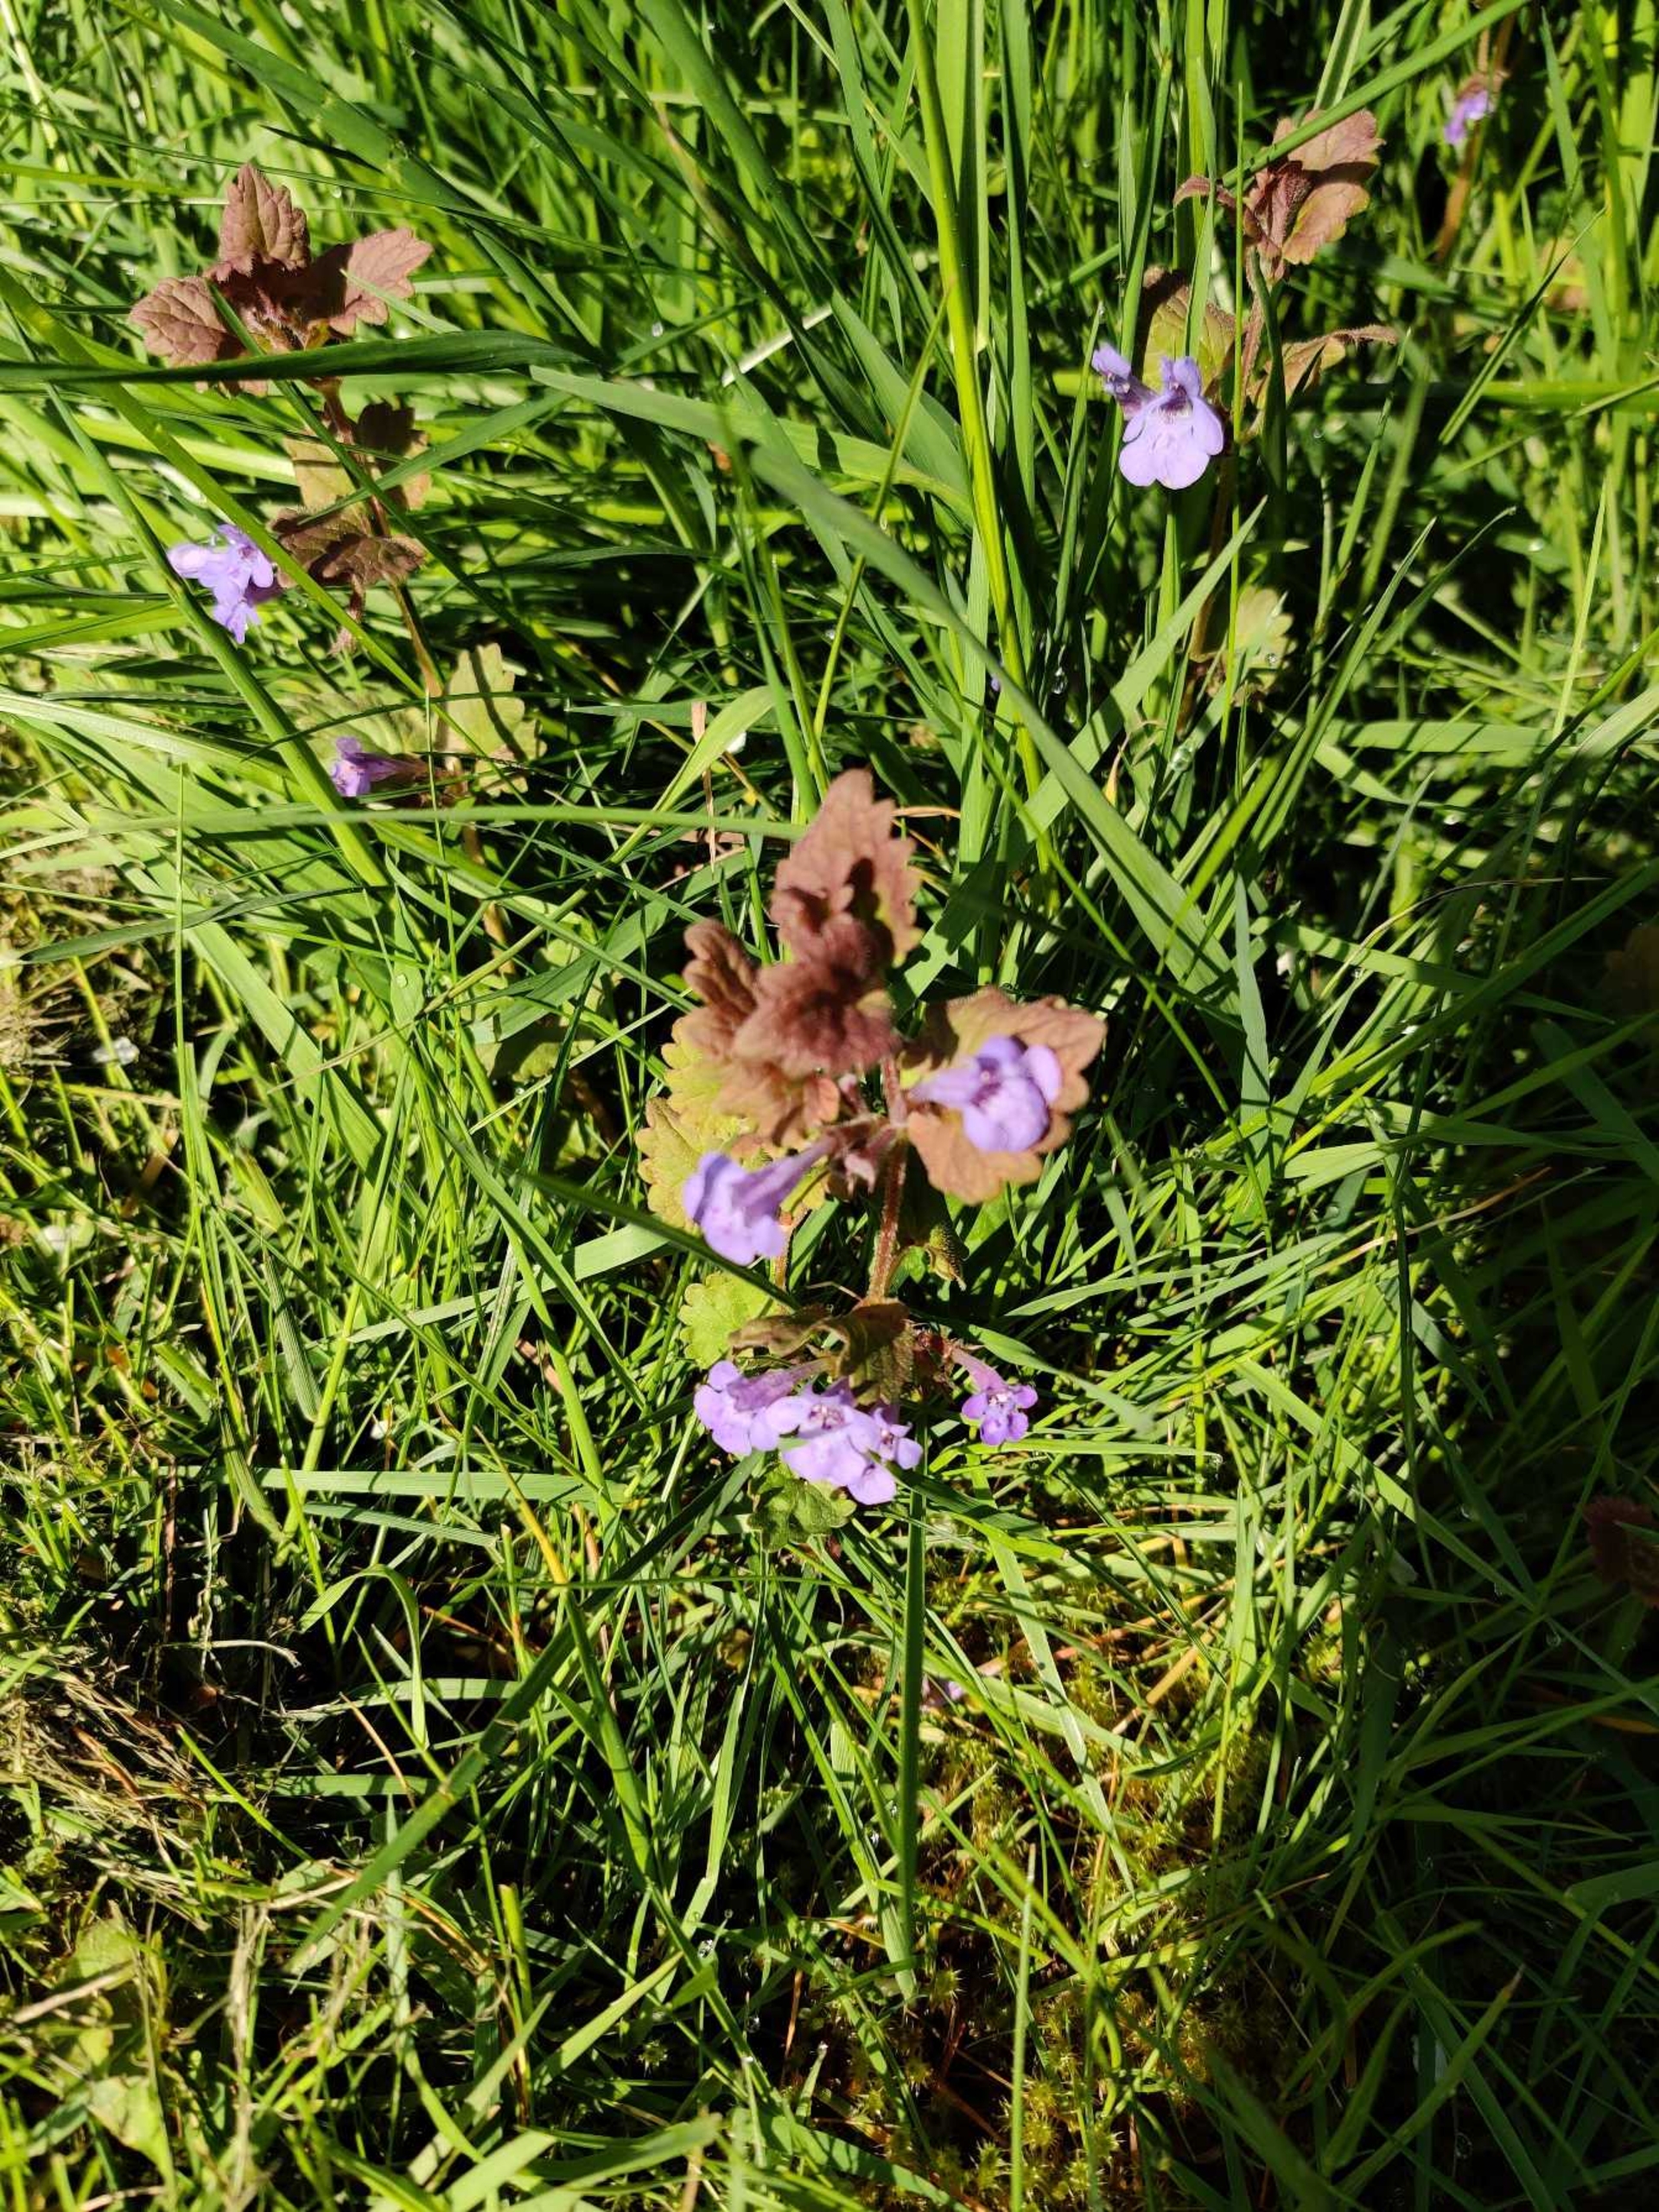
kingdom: Plantae
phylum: Tracheophyta
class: Magnoliopsida
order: Lamiales
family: Lamiaceae
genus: Glechoma
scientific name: Glechoma hederacea
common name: Korsknap
